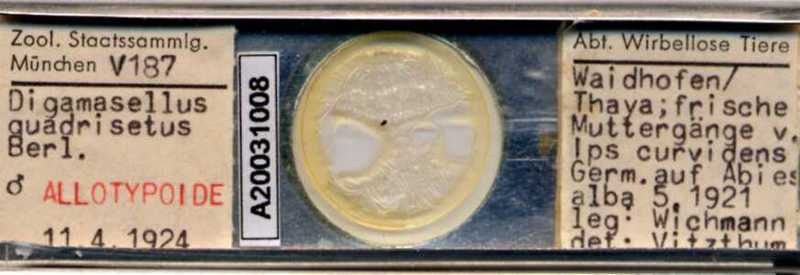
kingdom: Animalia
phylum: Arthropoda
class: Arachnida
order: Mesostigmata
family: Digamasellidae
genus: Dendrolaelaps
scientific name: Dendrolaelaps quadrisetus
